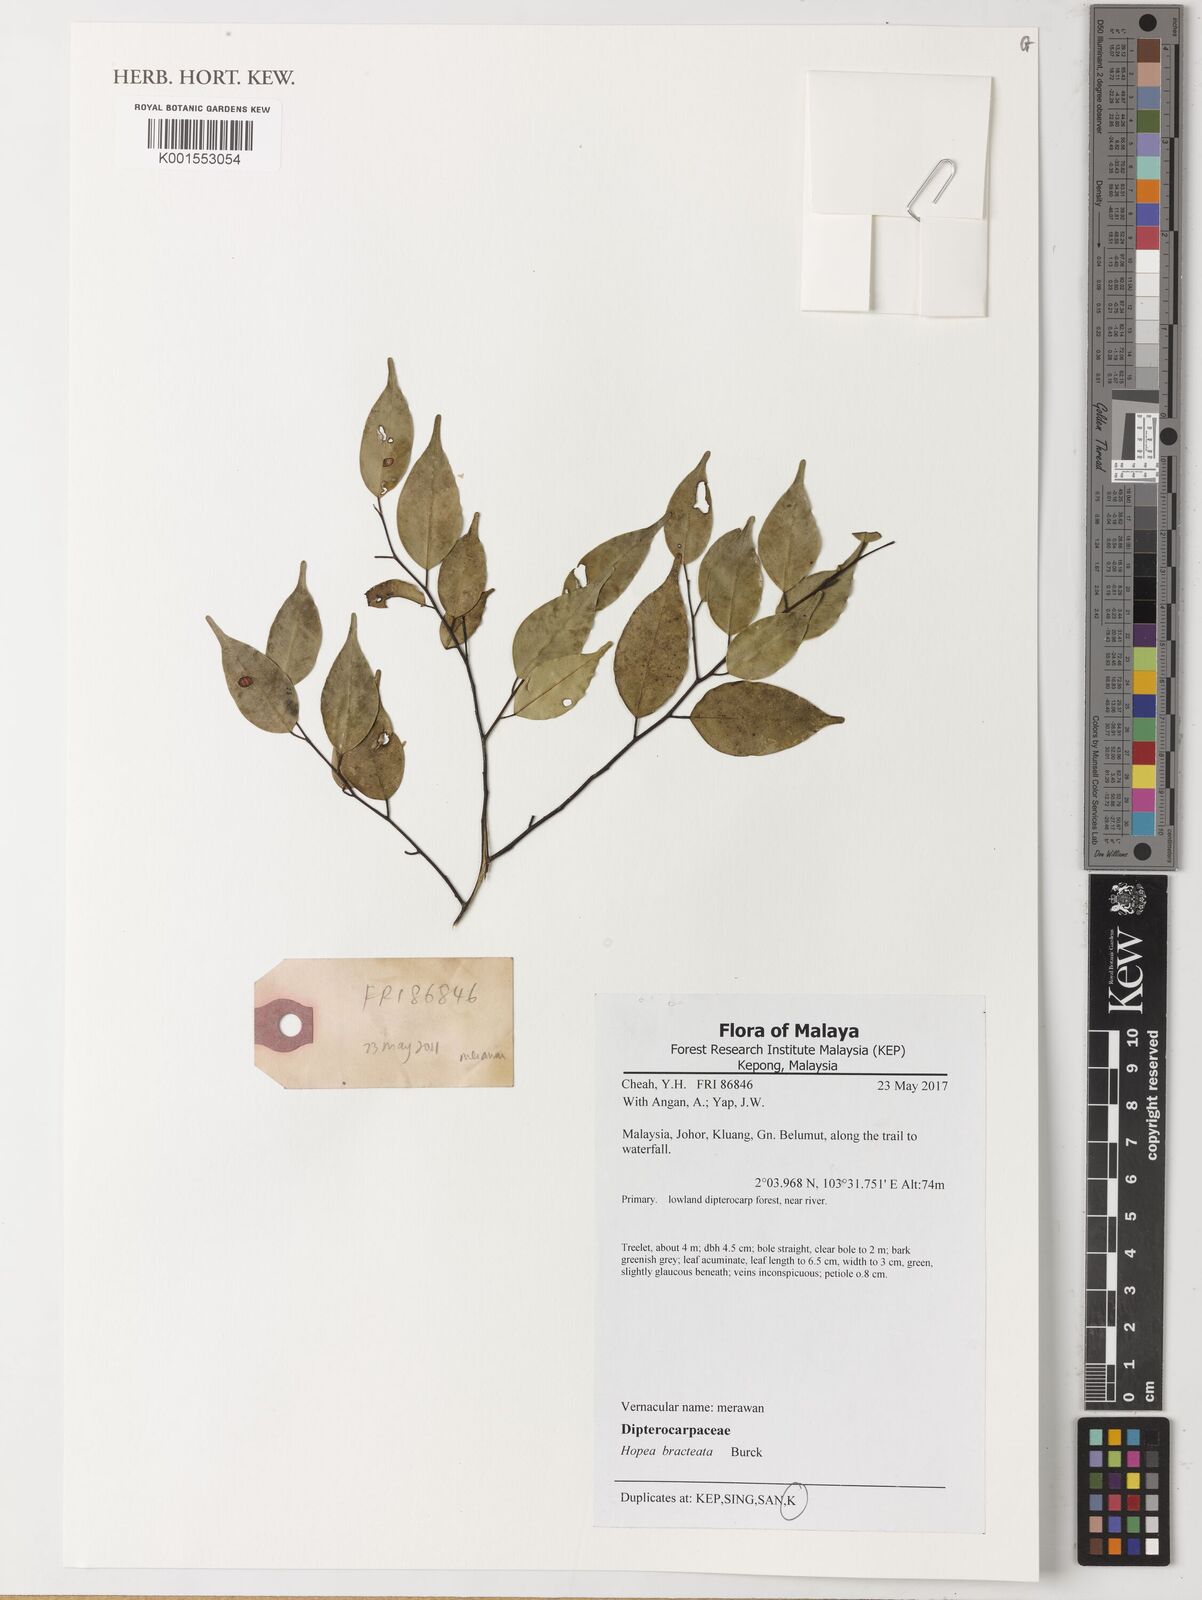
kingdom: Plantae
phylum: Tracheophyta
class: Magnoliopsida
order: Malvales
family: Dipterocarpaceae
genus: Hopea
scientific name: Hopea bracteata
